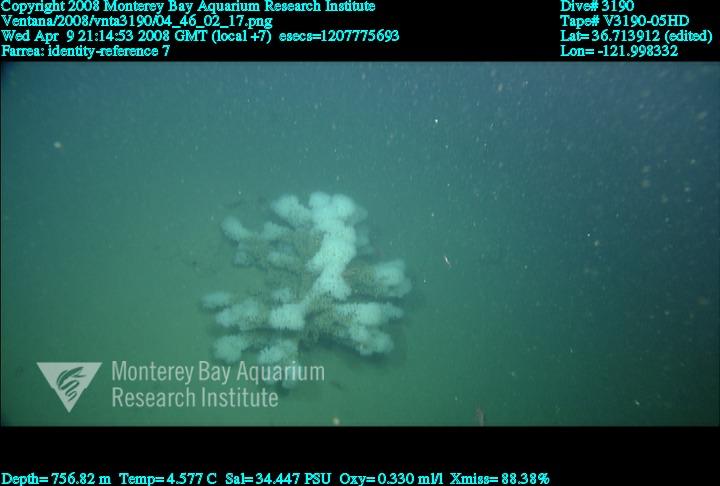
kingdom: Animalia
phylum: Porifera
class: Hexactinellida
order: Sceptrulophora
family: Farreidae
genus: Farrea
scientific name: Farrea
